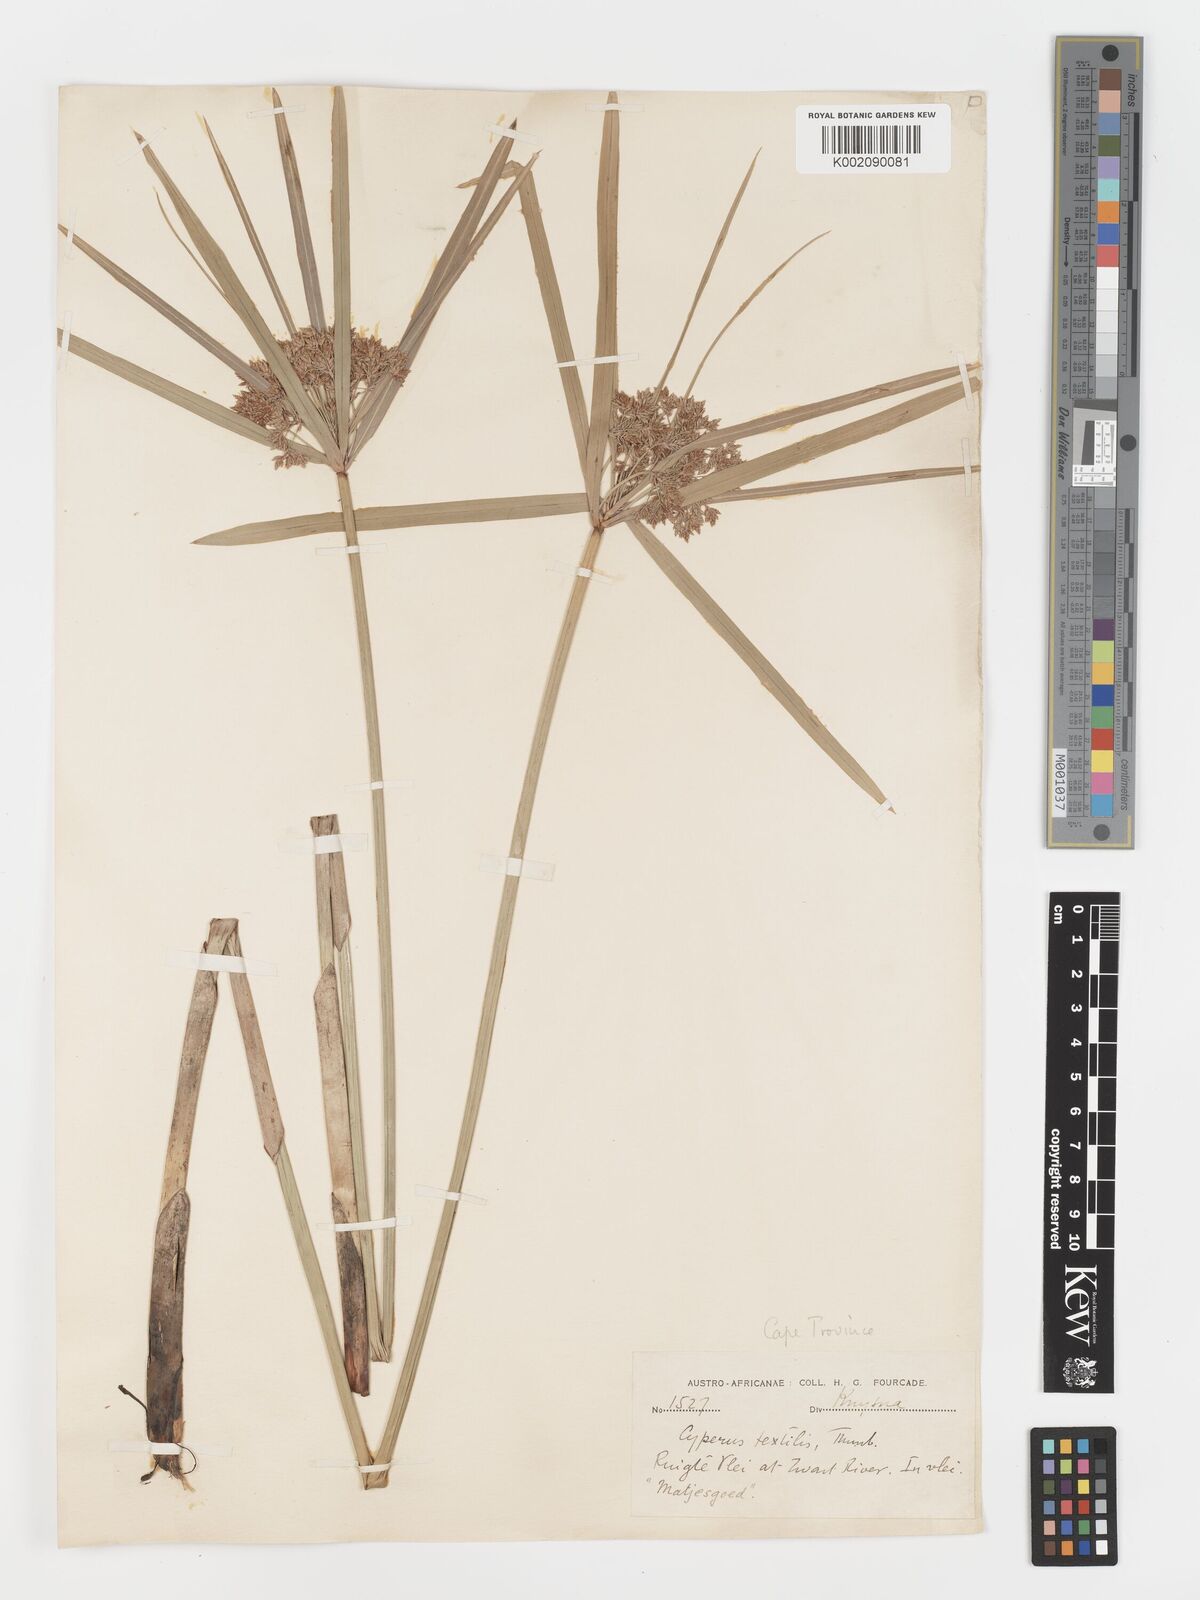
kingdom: Plantae
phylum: Tracheophyta
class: Liliopsida
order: Poales
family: Cyperaceae
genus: Cyperus
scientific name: Cyperus alternifolius
